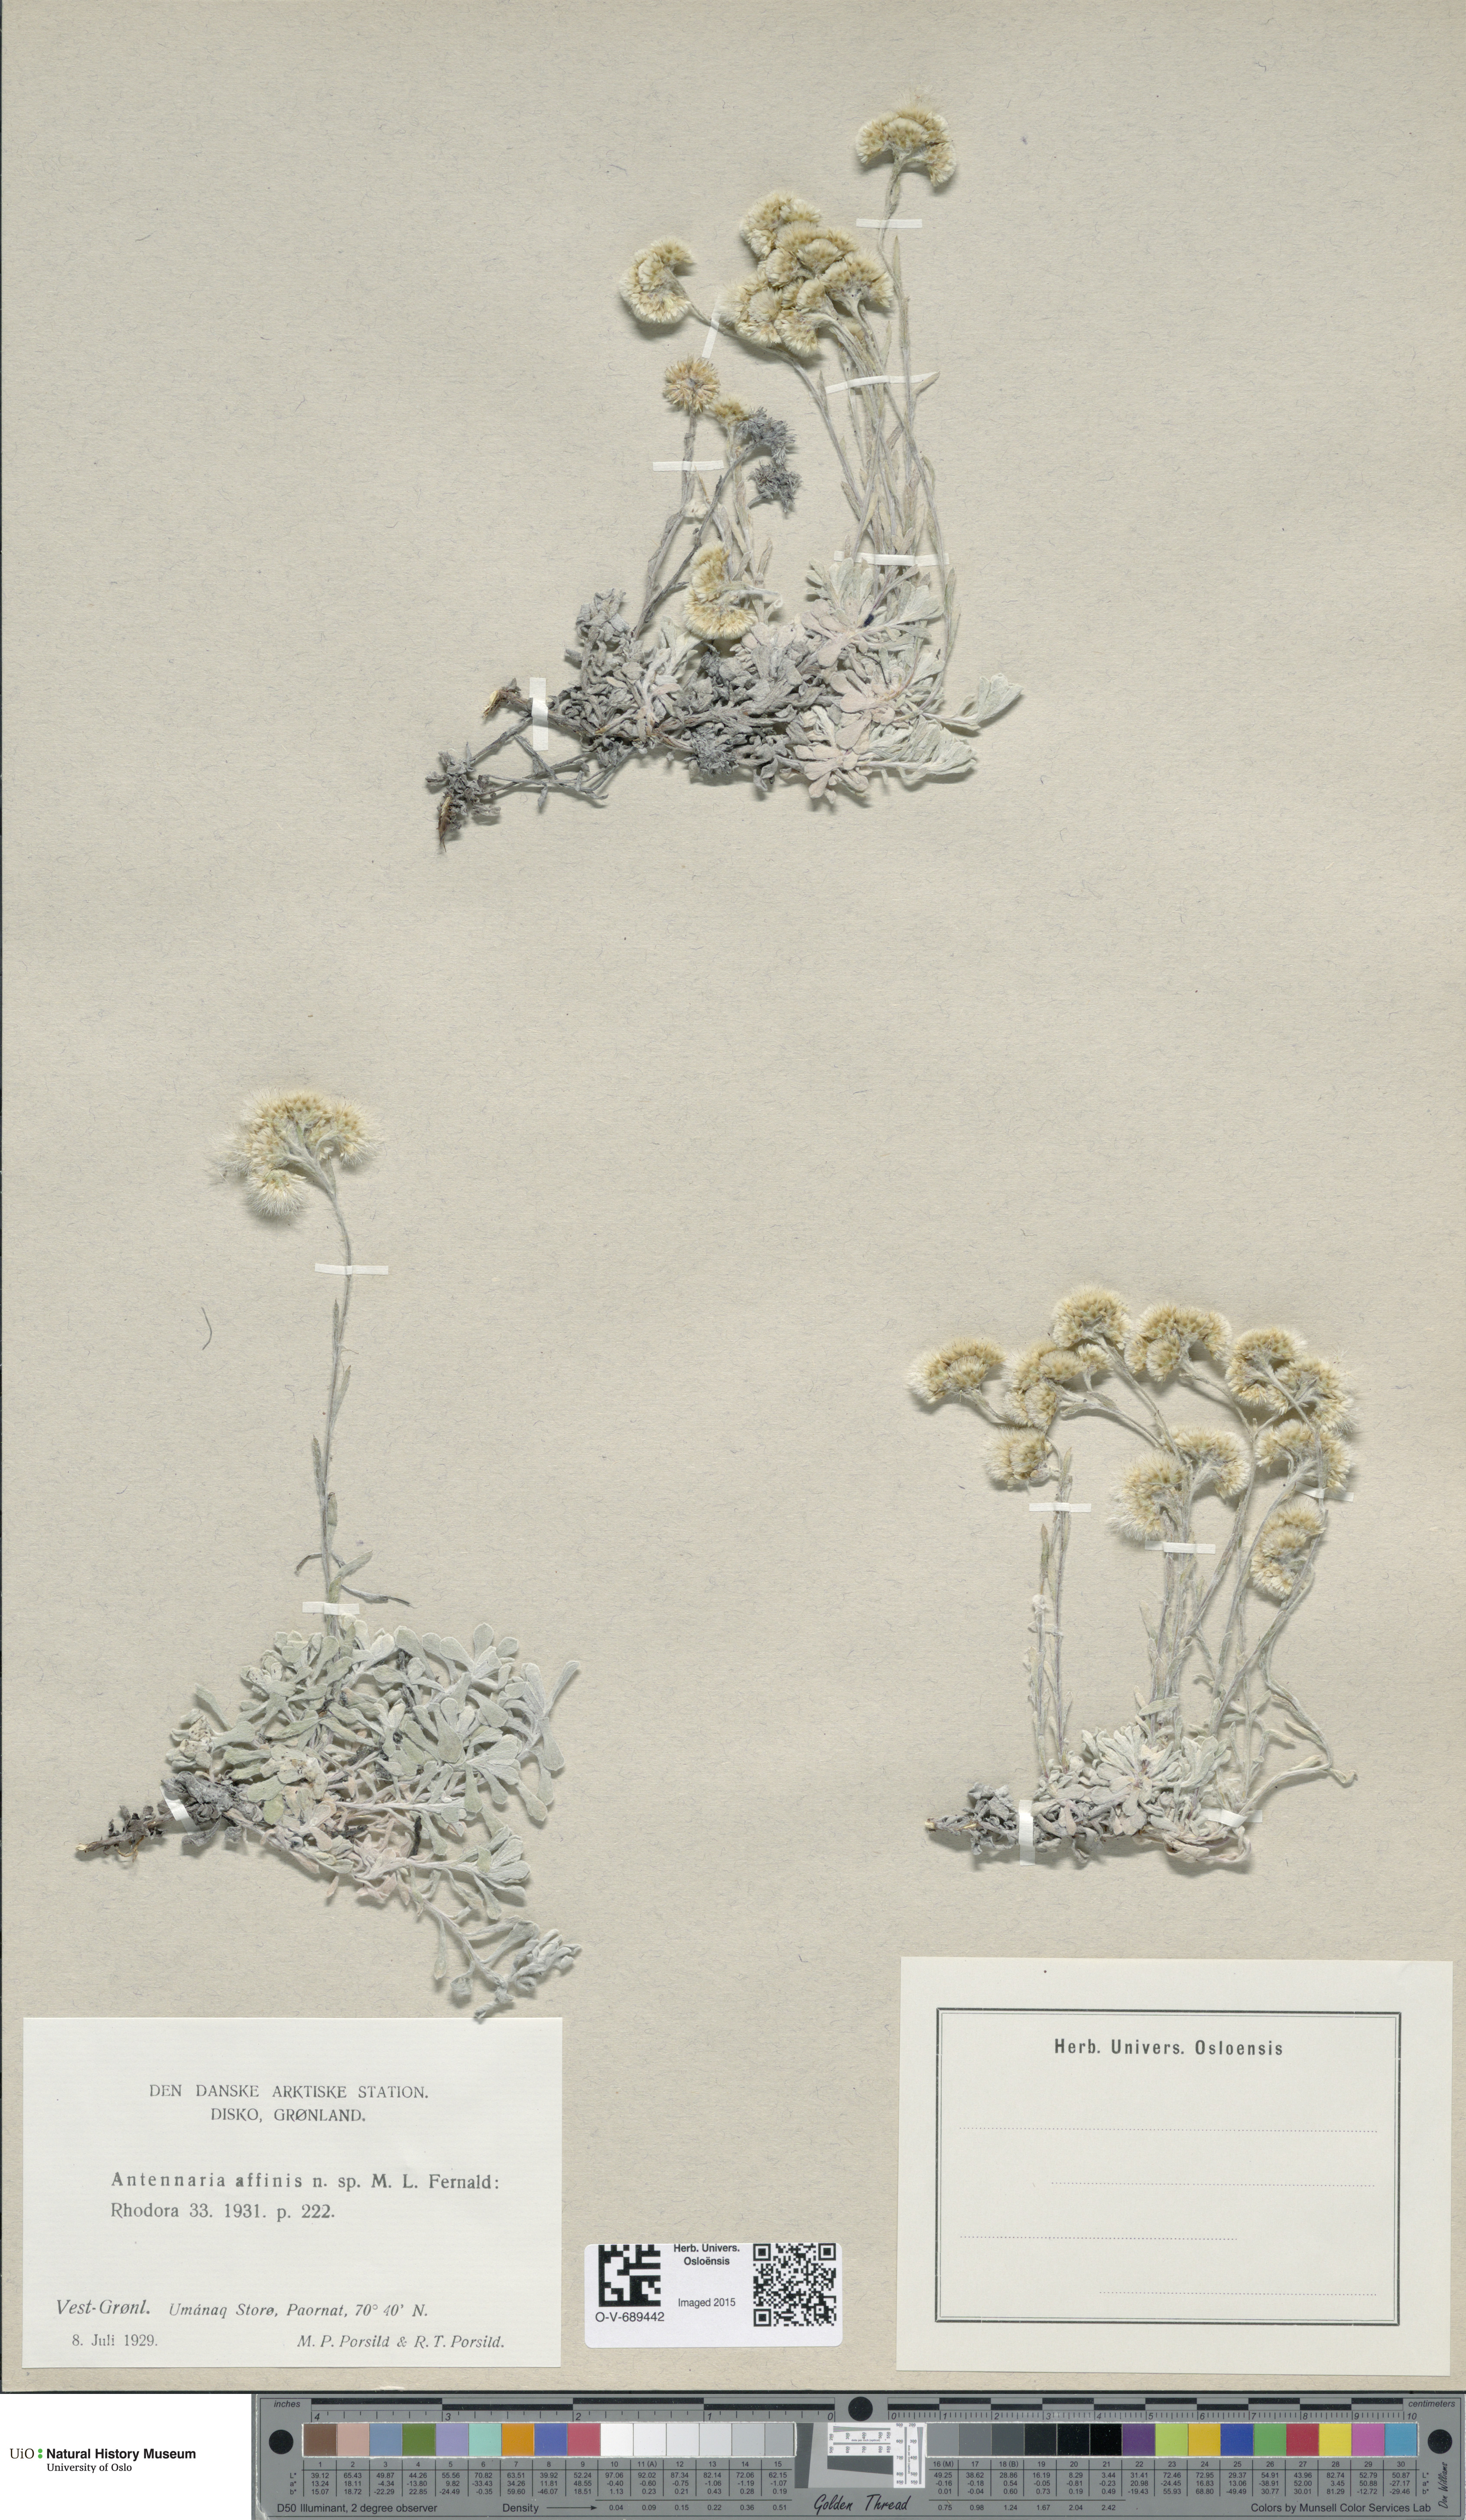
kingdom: Plantae
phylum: Tracheophyta
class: Magnoliopsida
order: Asterales
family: Asteraceae
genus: Antennaria
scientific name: Antennaria rosea
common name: Rosy pussytoes
